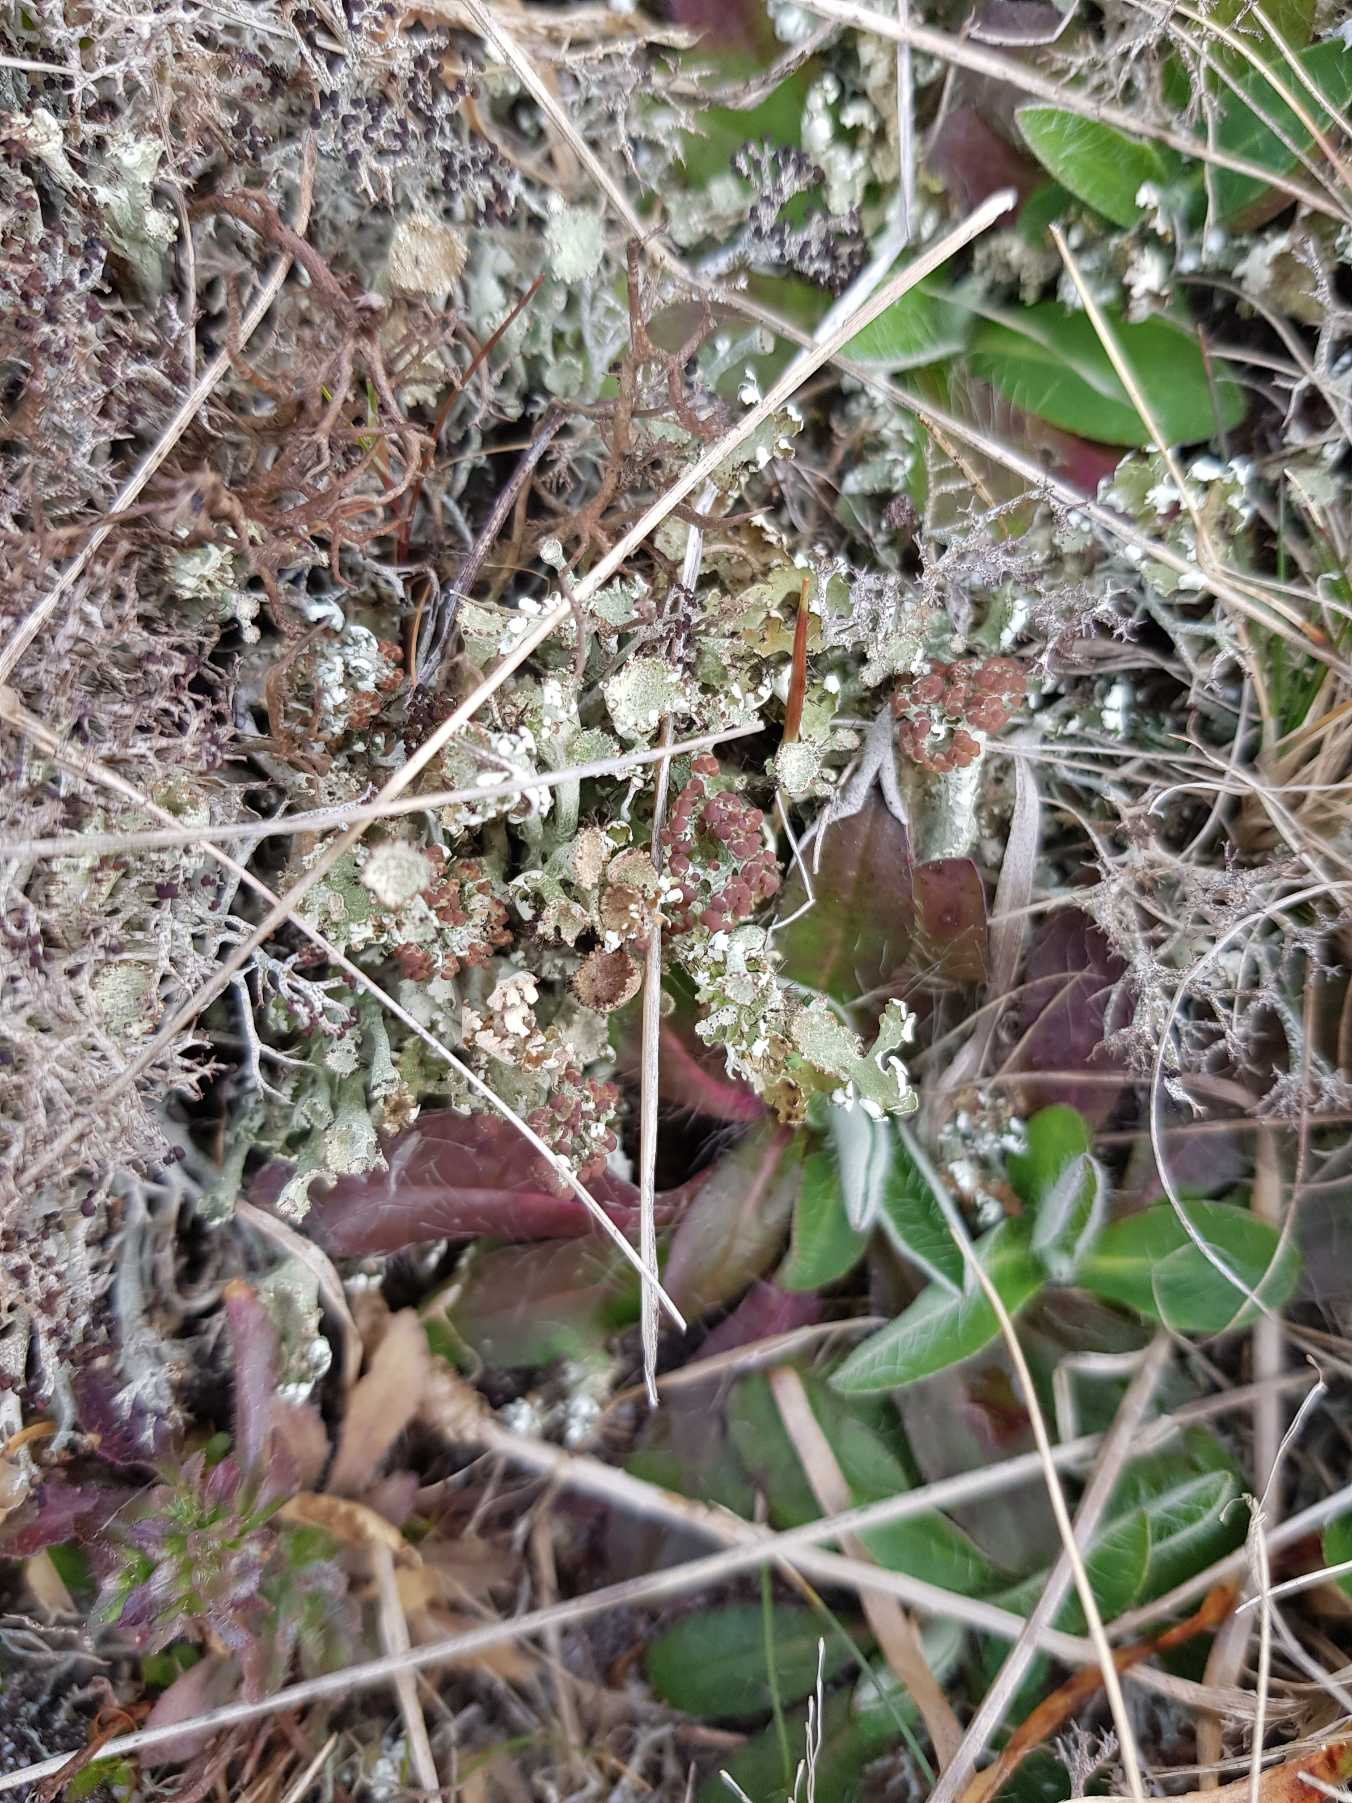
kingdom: Fungi
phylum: Ascomycota
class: Lecanoromycetes
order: Lecanorales
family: Cladoniaceae
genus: Cladonia
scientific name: Cladonia foliacea
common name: Fliget bægerlav
